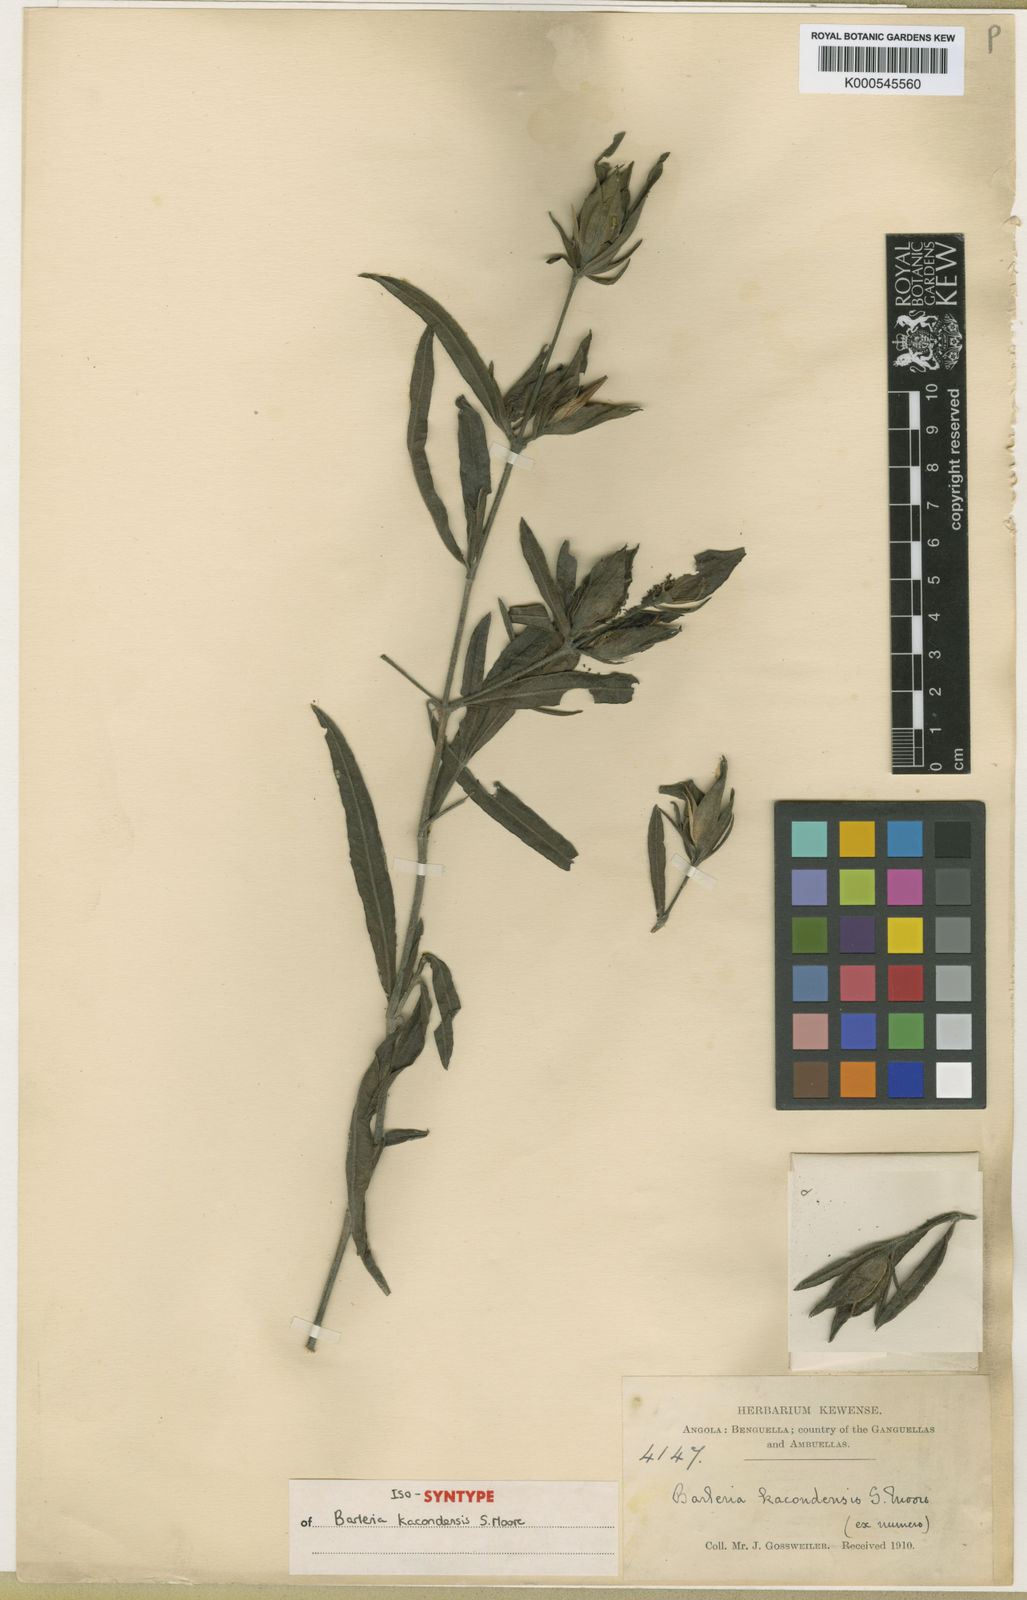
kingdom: Plantae
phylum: Tracheophyta
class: Magnoliopsida
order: Lamiales
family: Acanthaceae
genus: Barleria
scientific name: Barleria kacondensis
